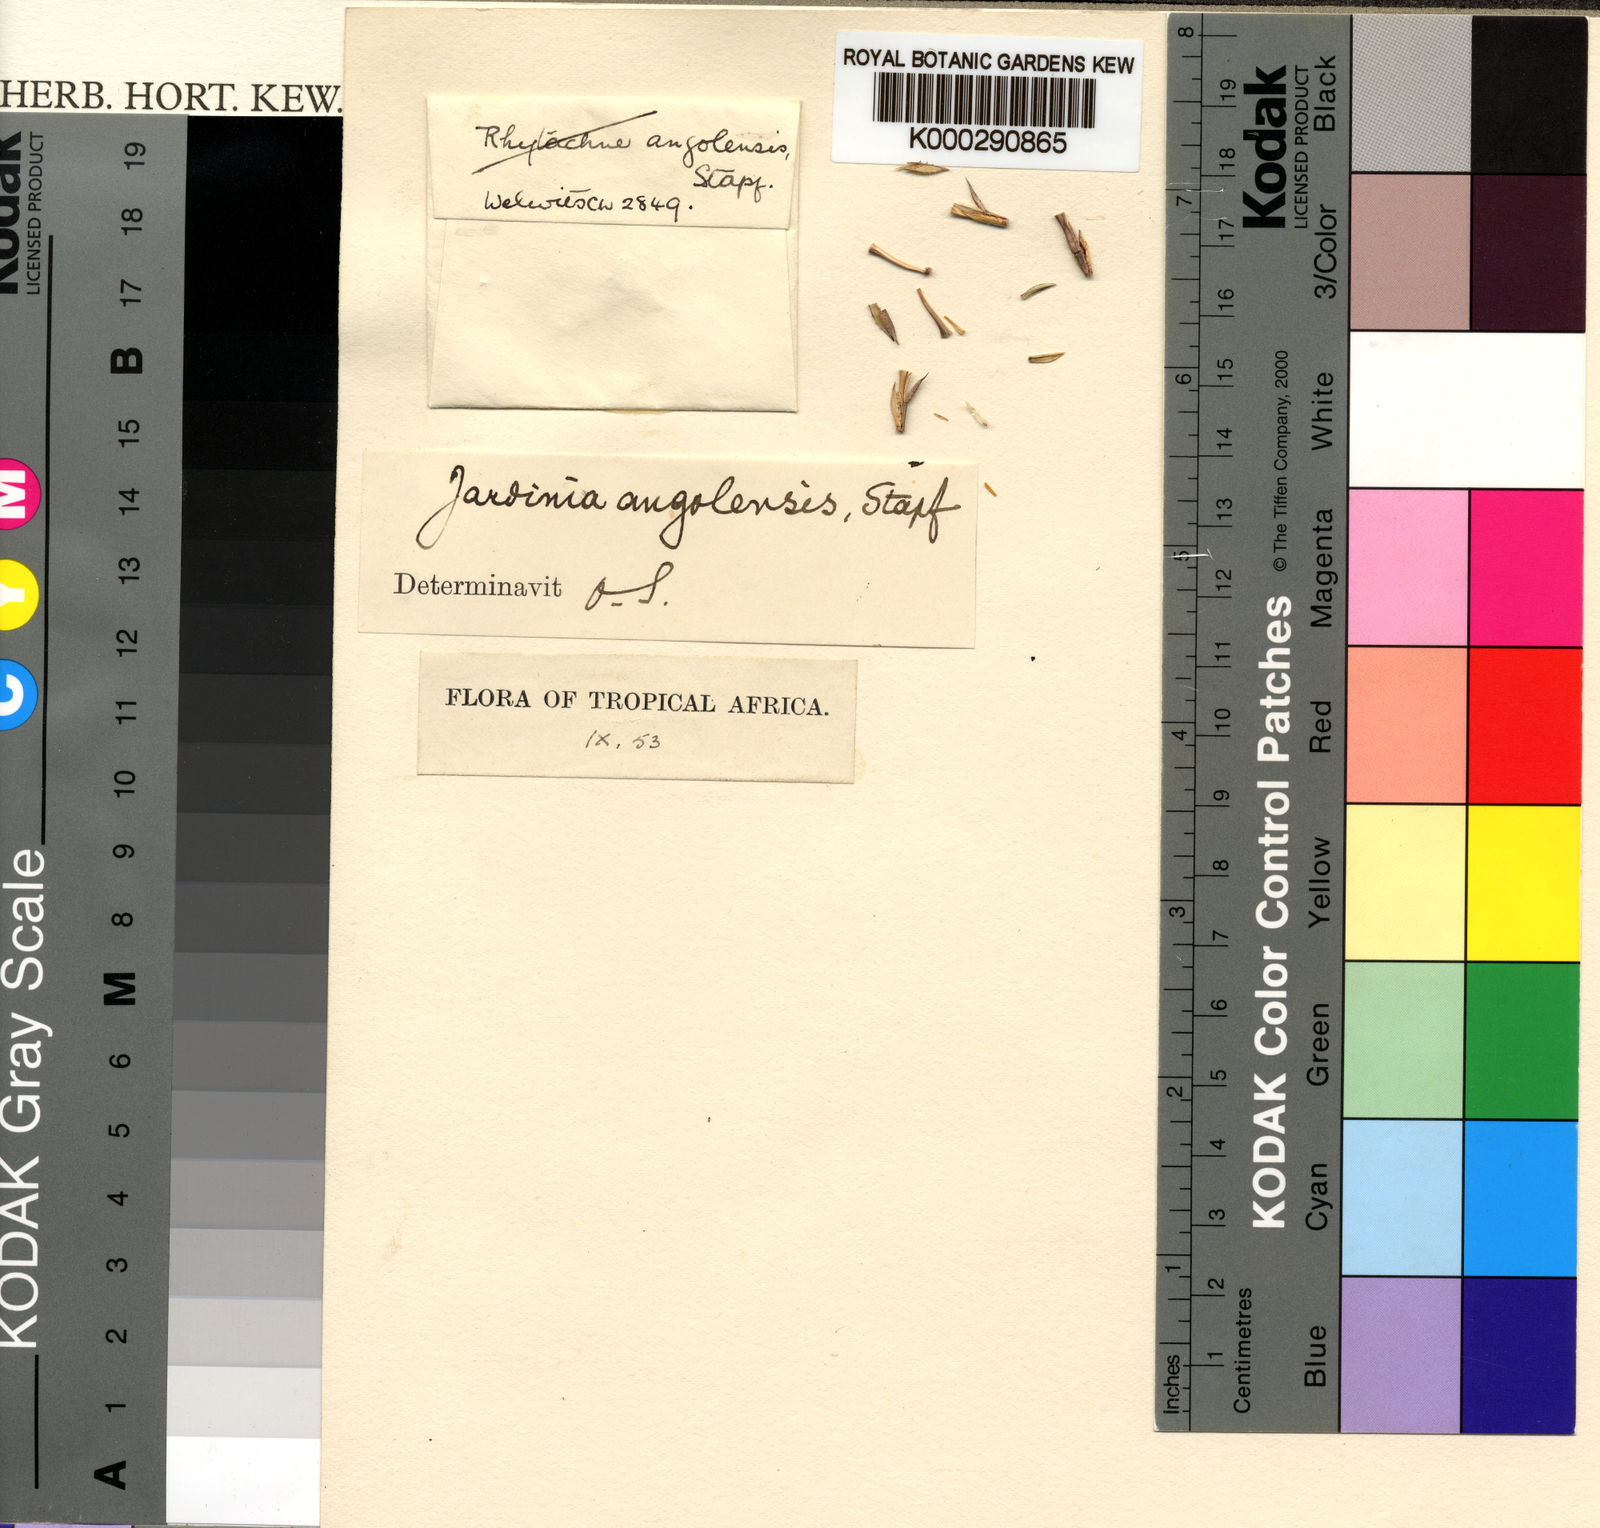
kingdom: Plantae
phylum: Tracheophyta
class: Liliopsida
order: Poales
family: Poaceae
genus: Phacelurus
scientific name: Phacelurus gabonensis
